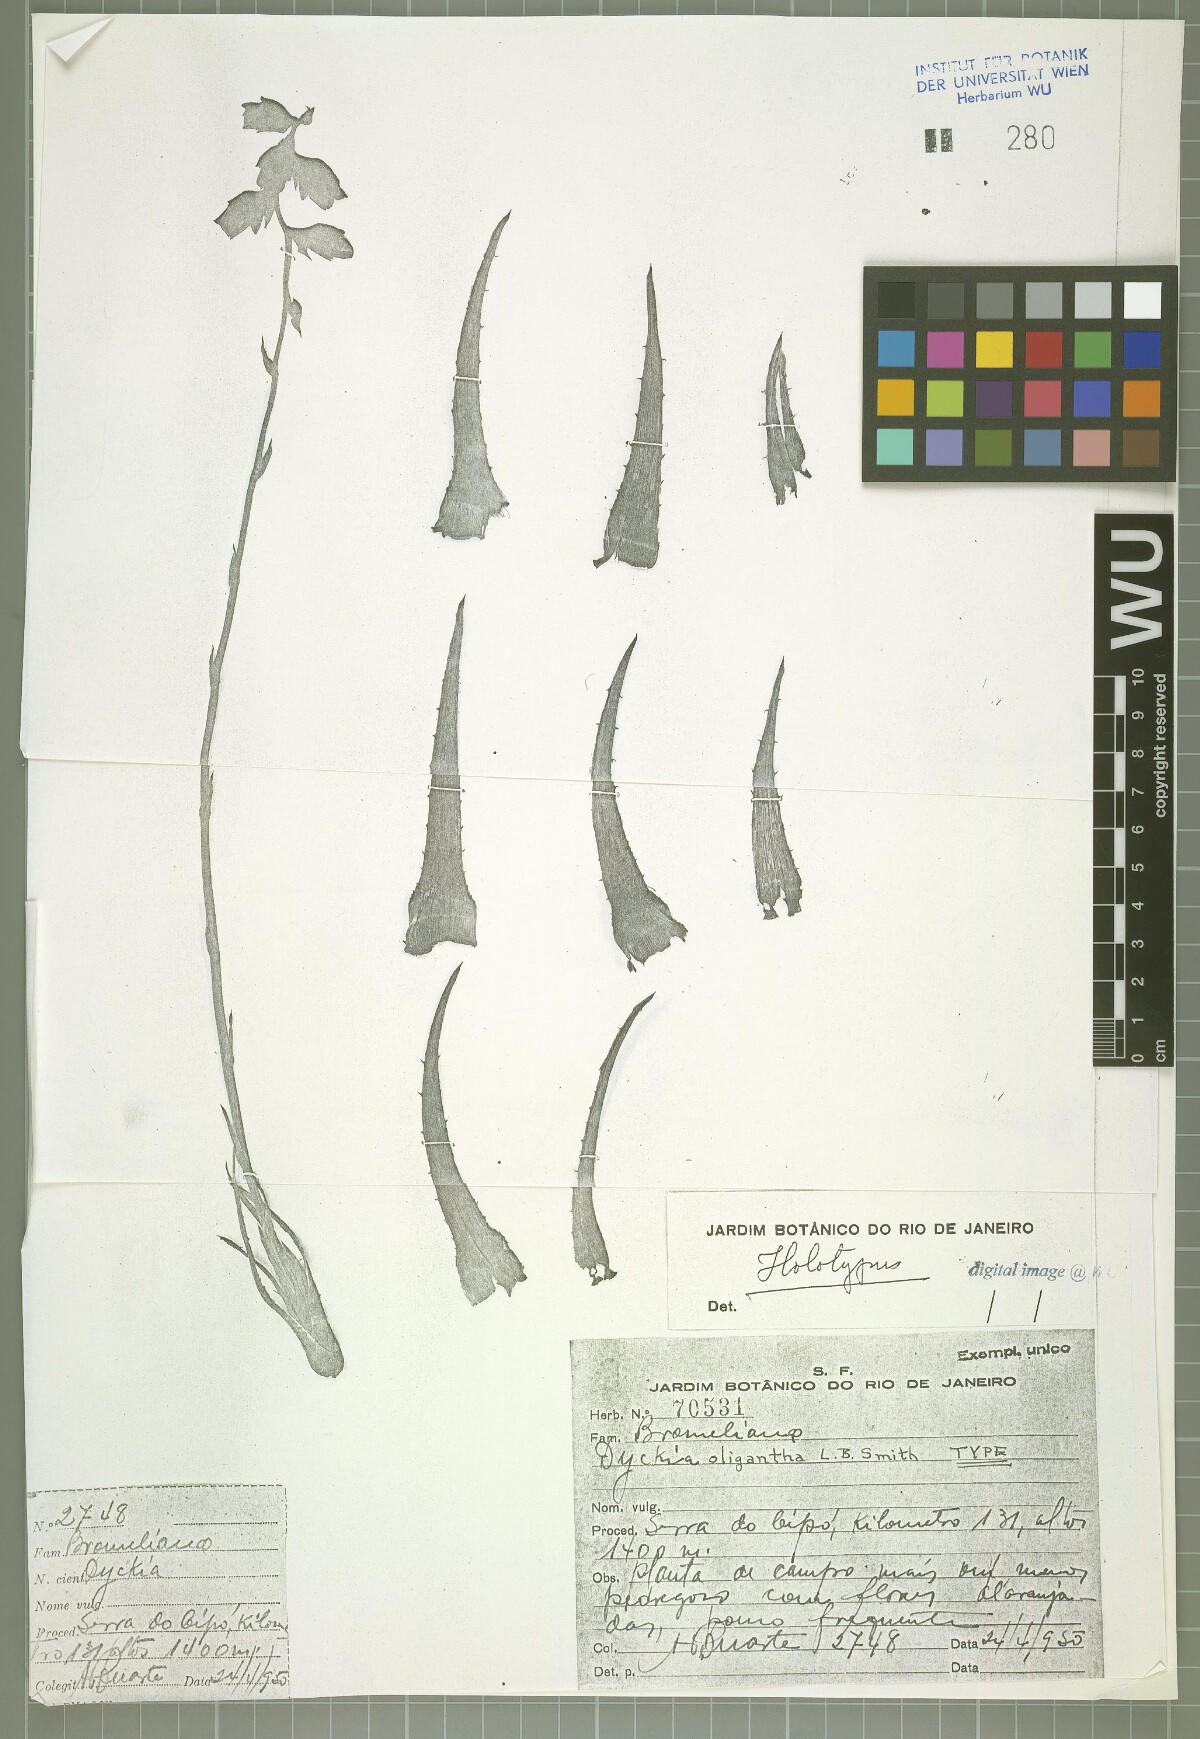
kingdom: Plantae
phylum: Tracheophyta
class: Liliopsida
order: Poales
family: Bromeliaceae
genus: Dyckia
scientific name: Dyckia oligantha
